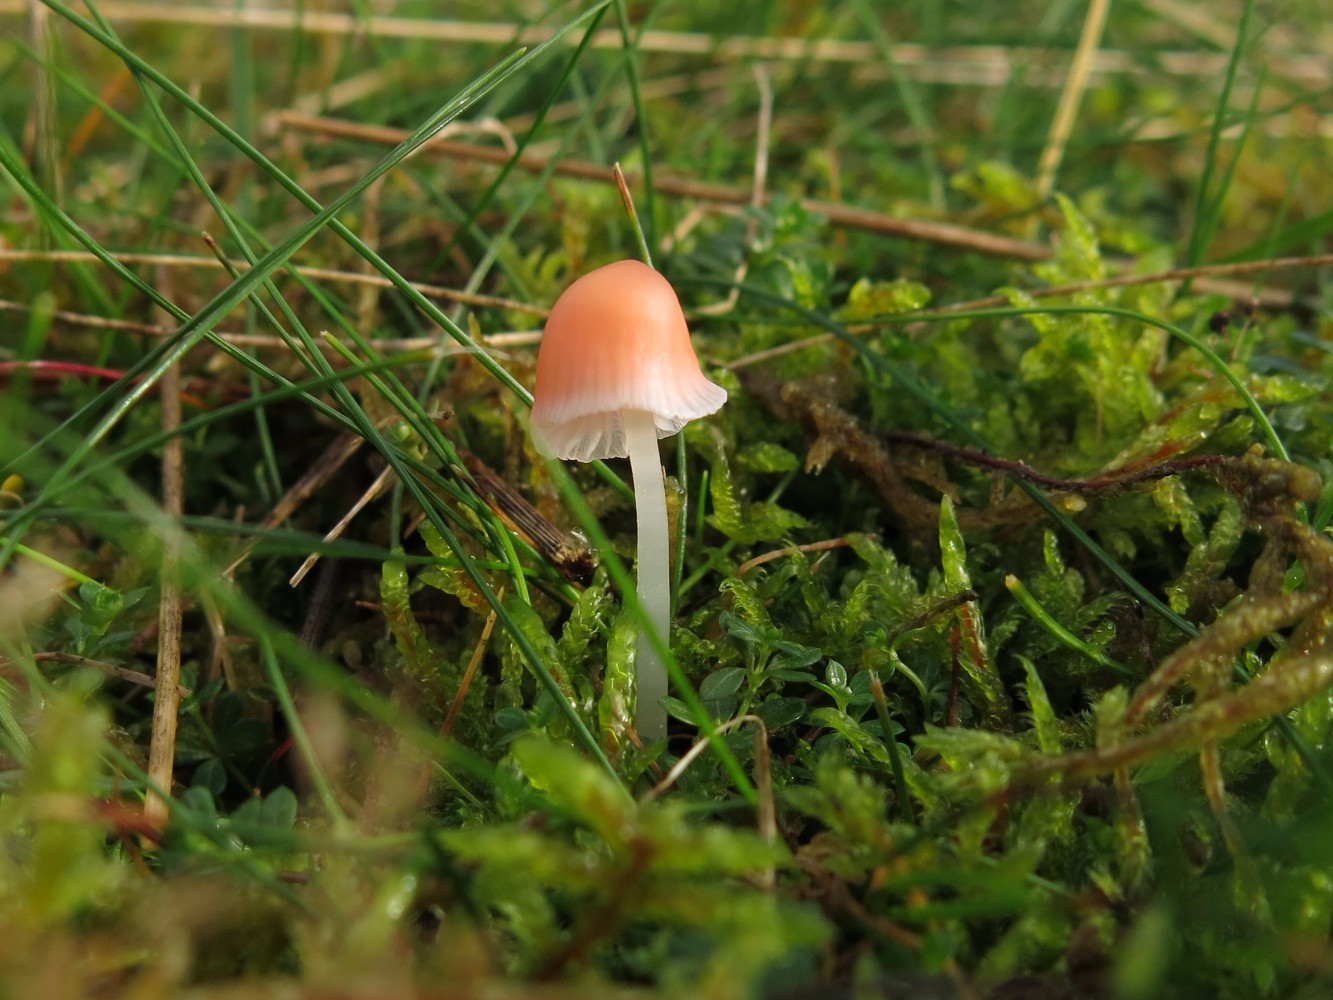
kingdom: Fungi
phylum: Basidiomycota
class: Agaricomycetes
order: Agaricales
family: Mycenaceae
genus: Atheniella
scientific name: Atheniella adonis
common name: rønnerød huesvamp
